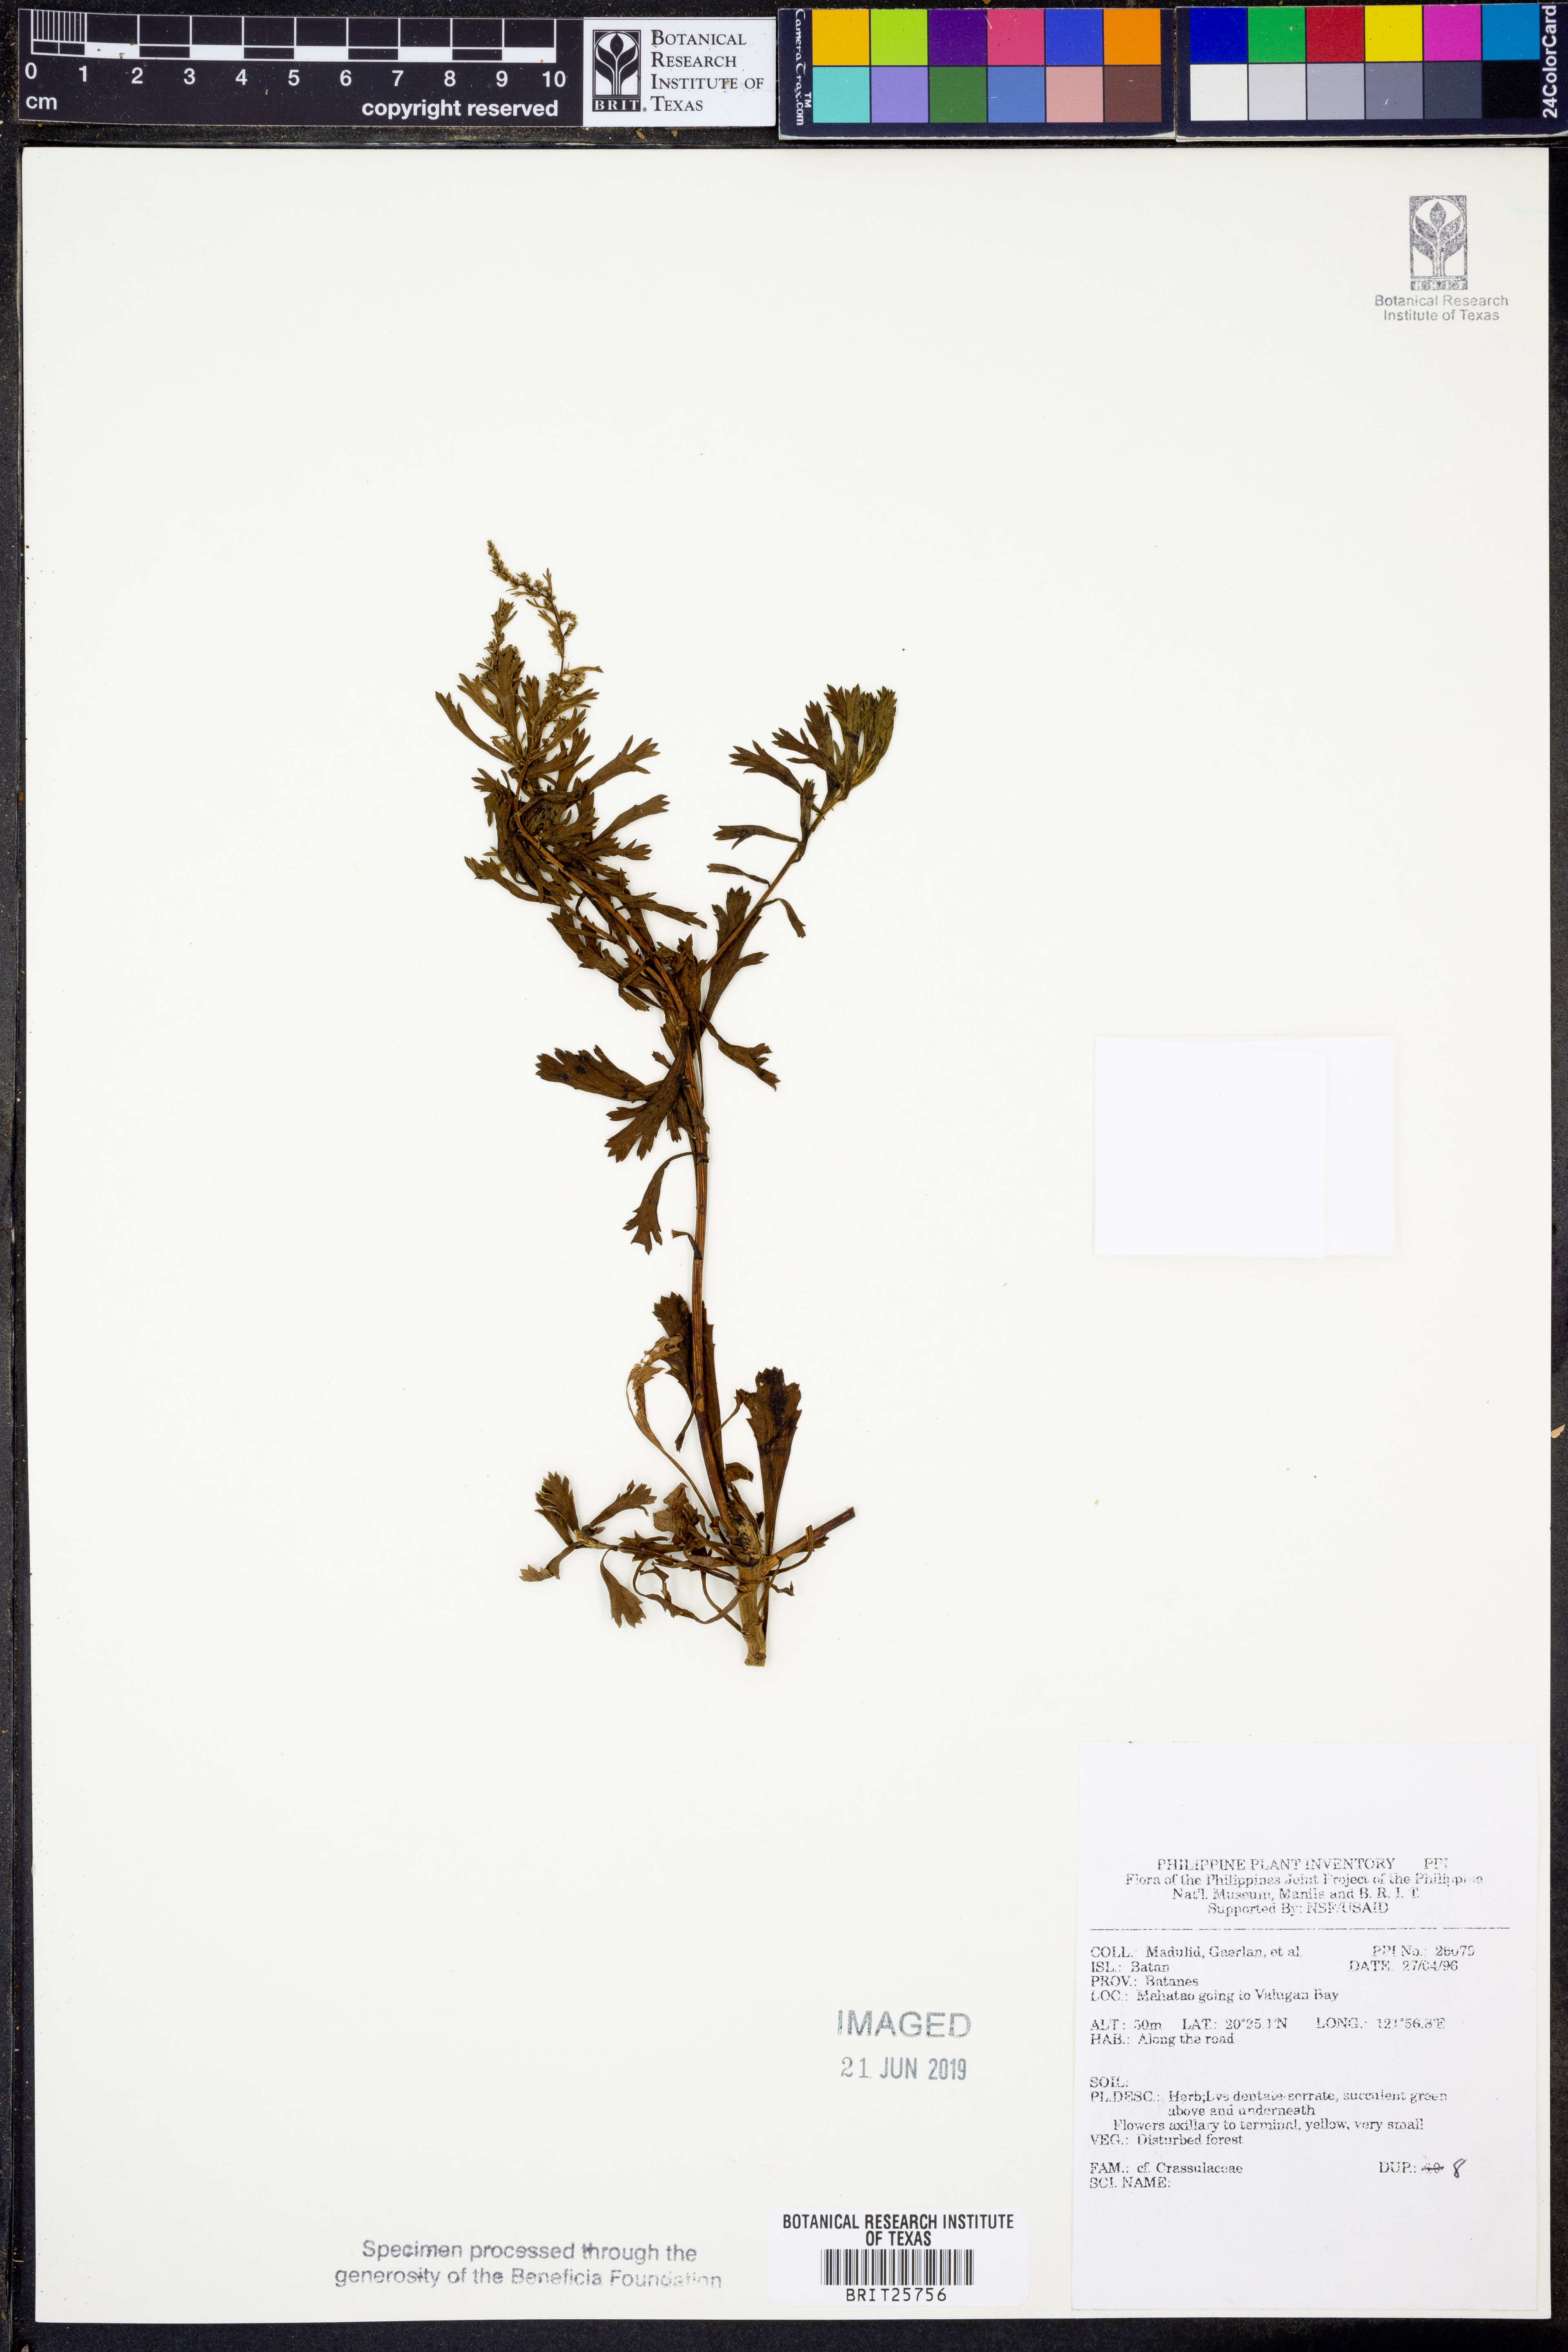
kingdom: Plantae
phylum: Tracheophyta
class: Magnoliopsida
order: Saxifragales
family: Crassulaceae
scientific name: Crassulaceae
